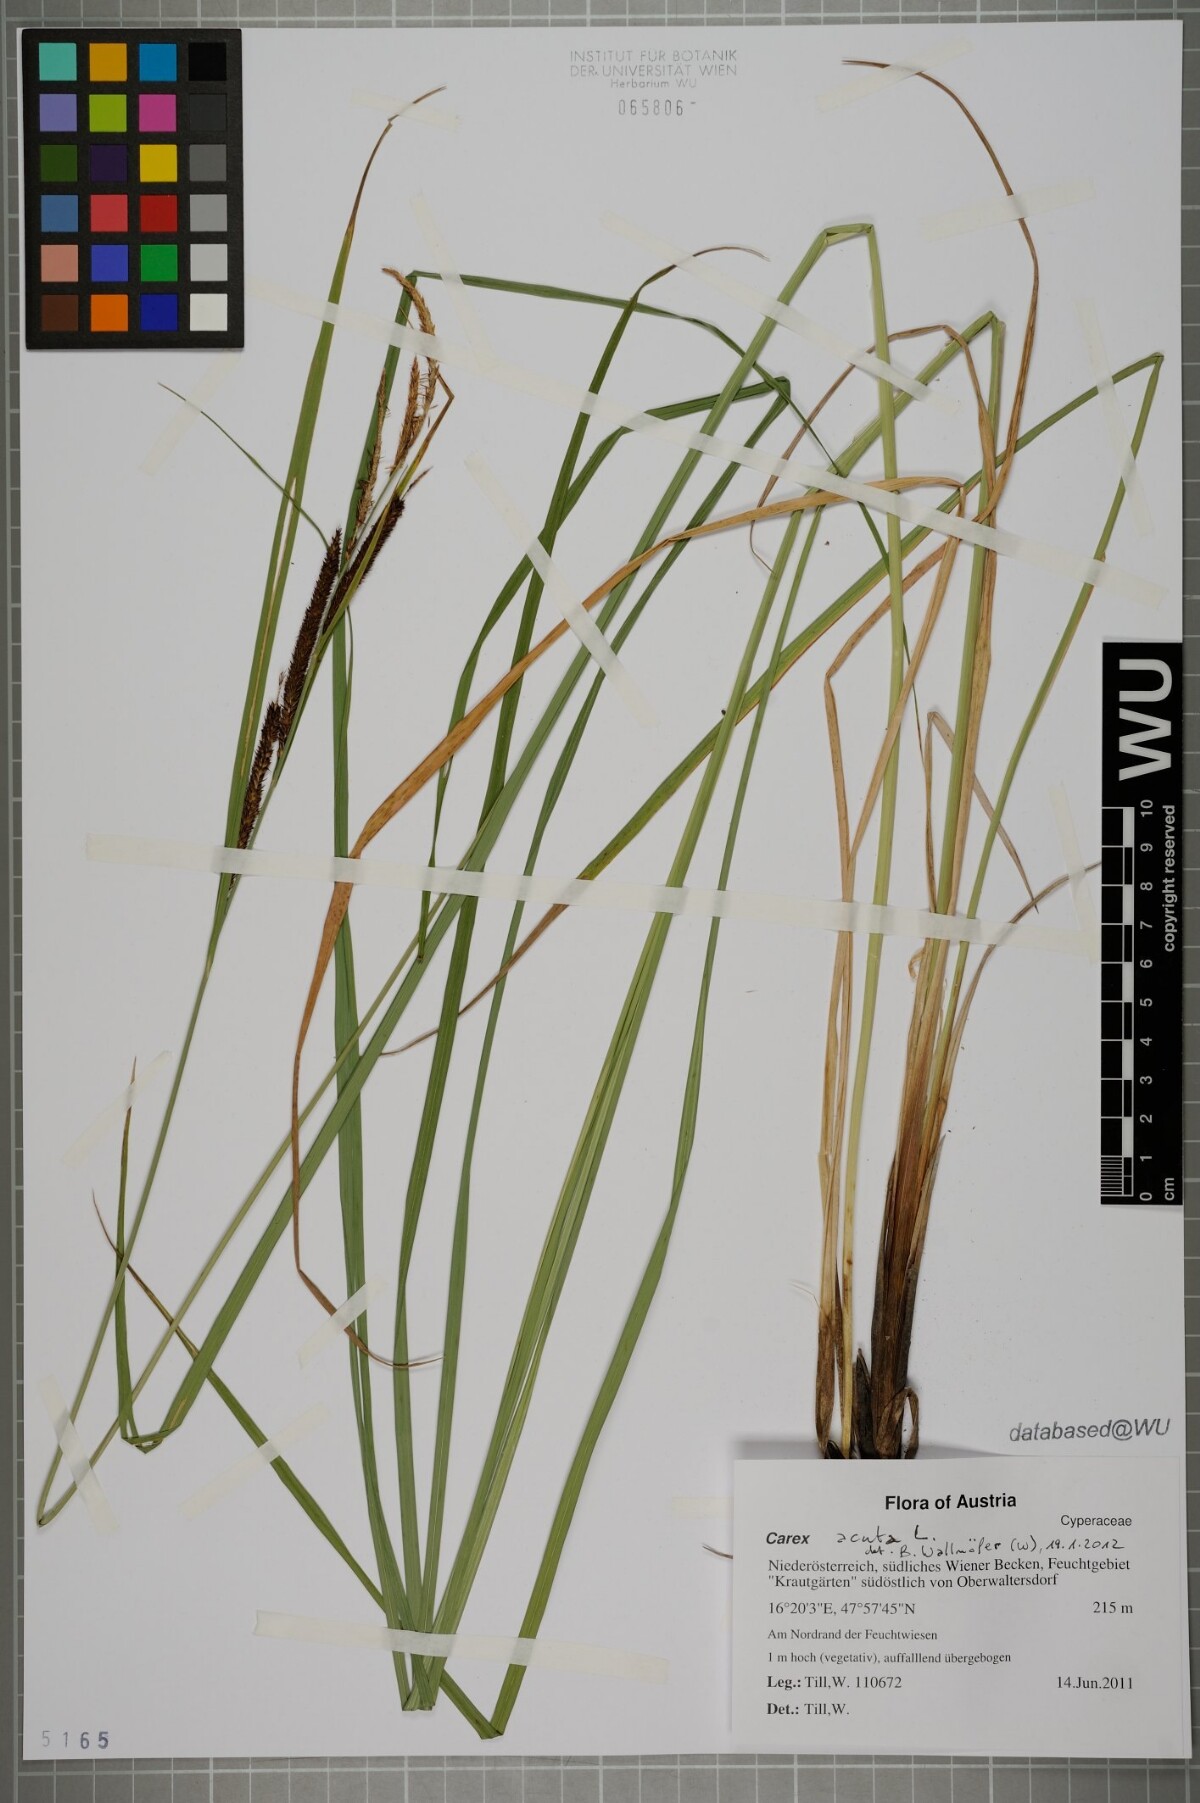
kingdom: Plantae
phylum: Tracheophyta
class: Liliopsida
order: Poales
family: Cyperaceae
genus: Carex
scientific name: Carex acuta
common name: Slender tufted-sedge
